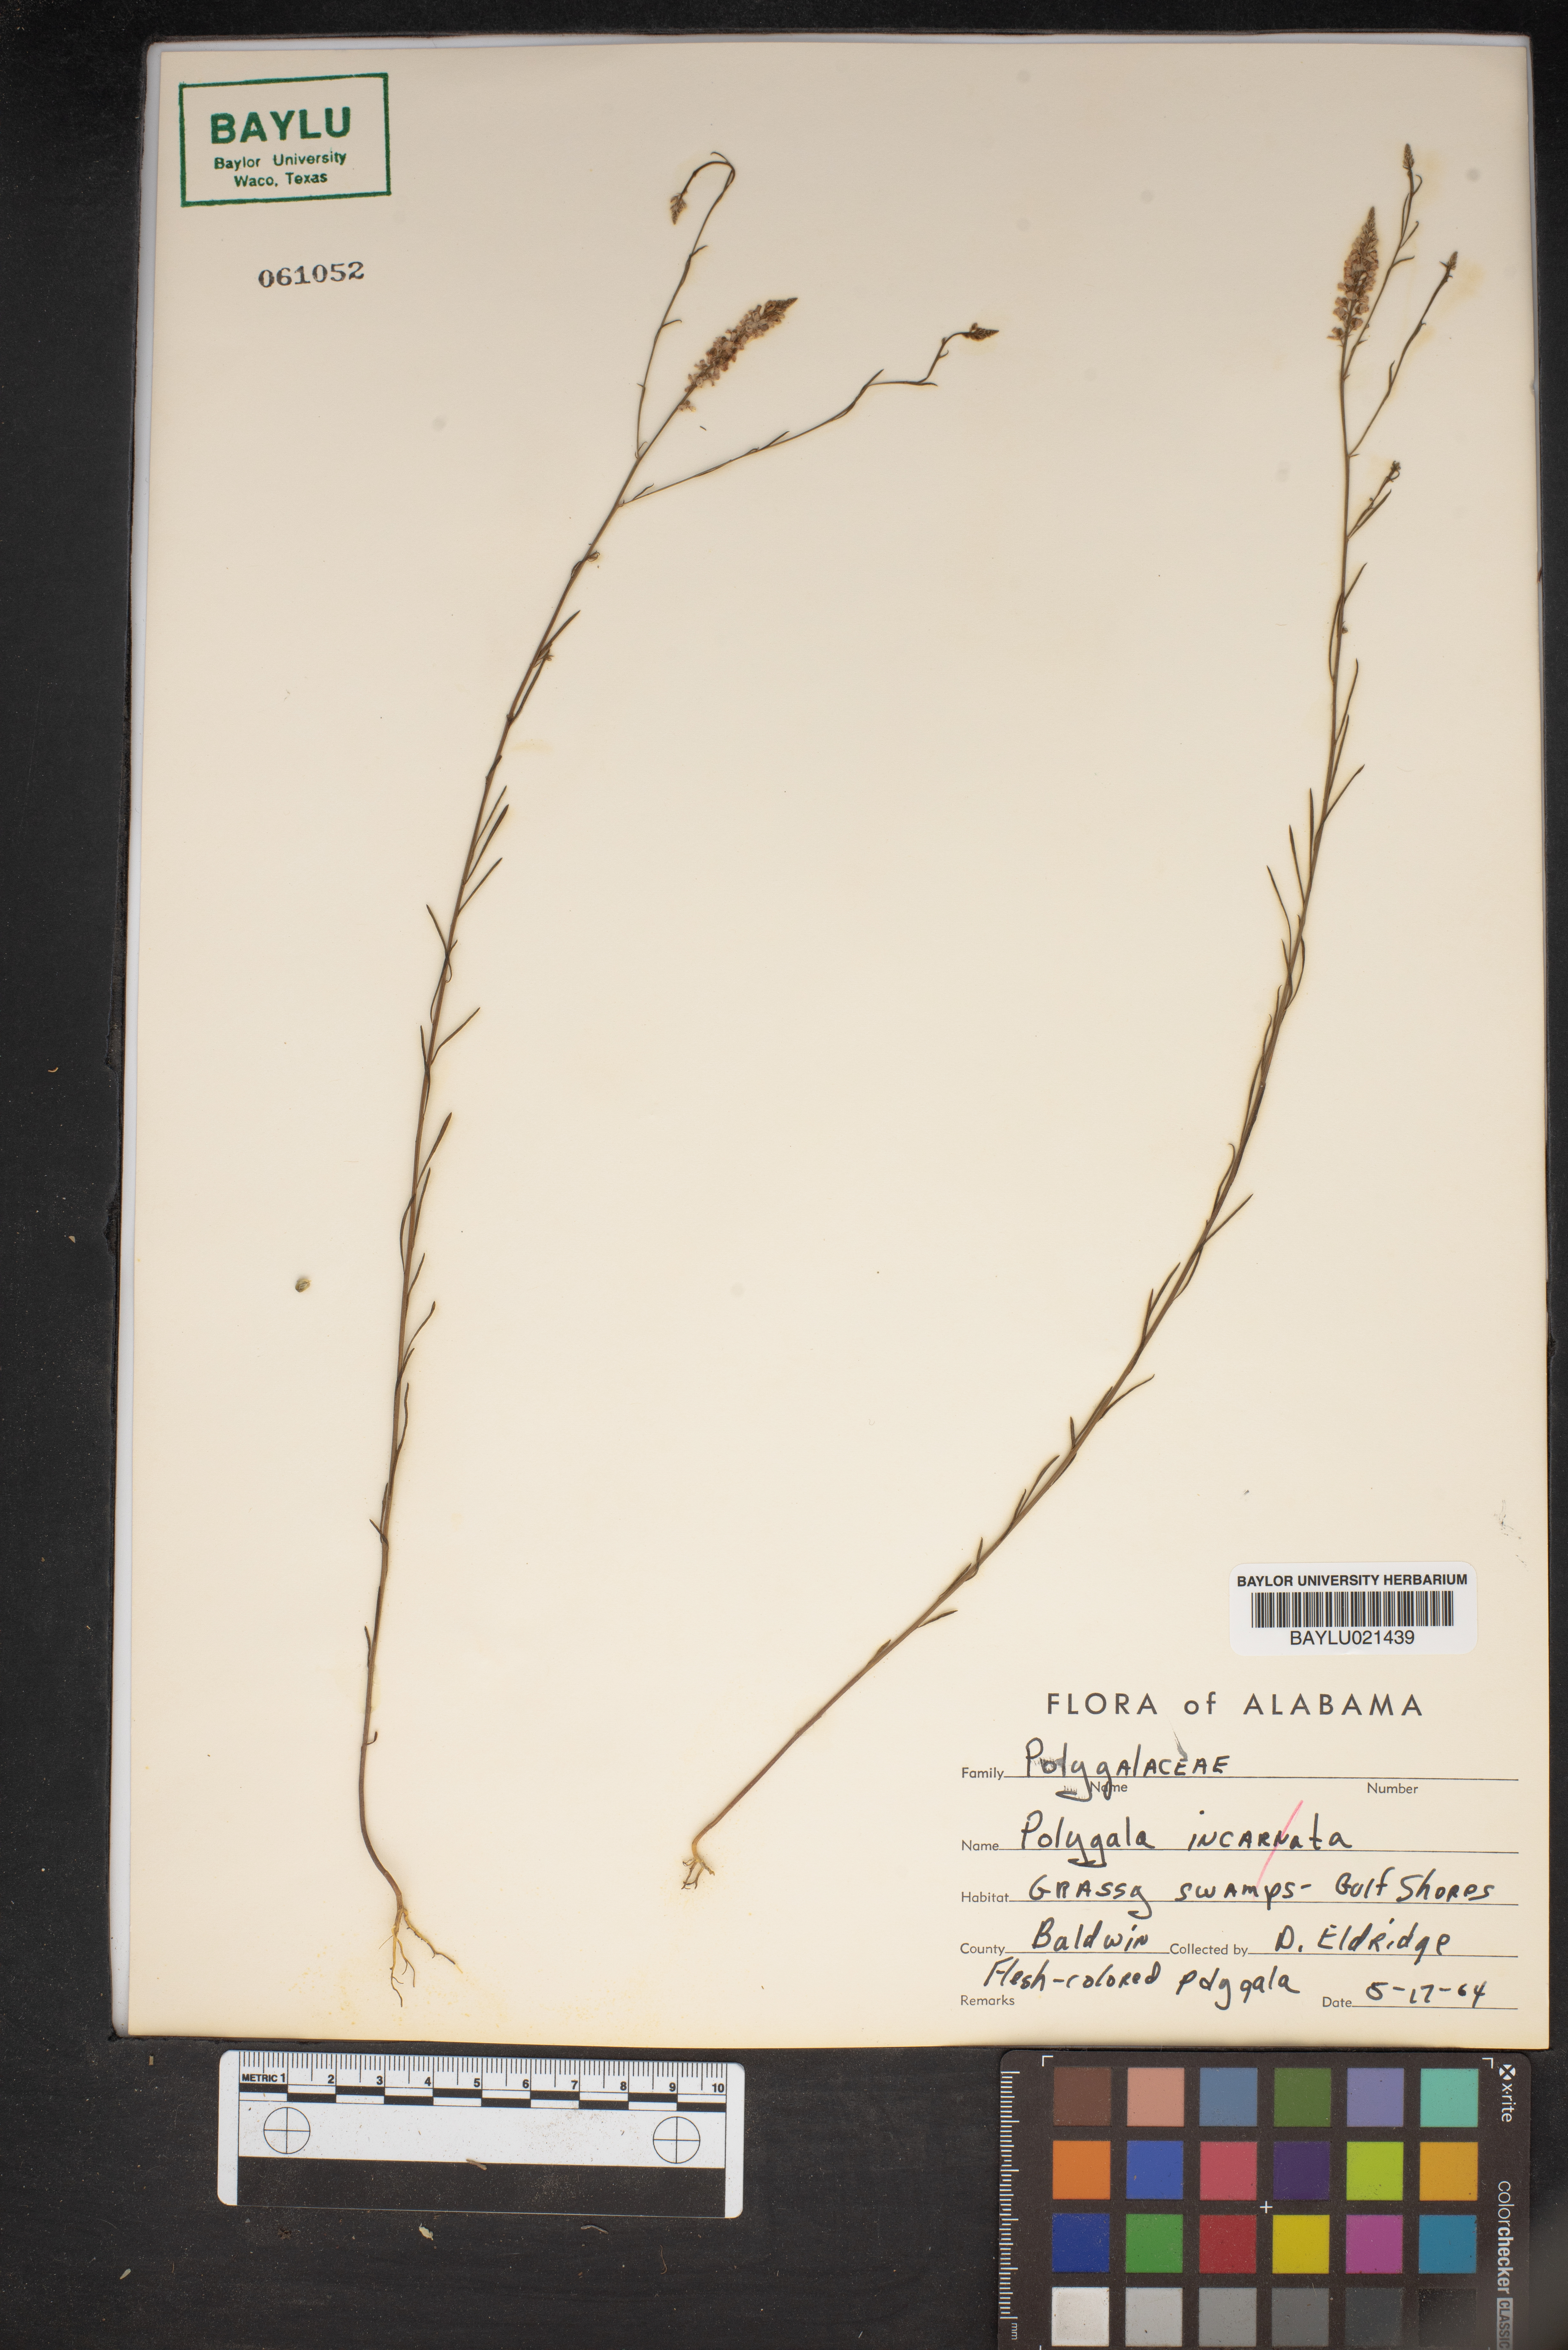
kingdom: Plantae
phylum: Tracheophyta
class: Magnoliopsida
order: Fabales
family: Polygalaceae
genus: Polygala
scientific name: Polygala incarnata
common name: Pink milkwort
